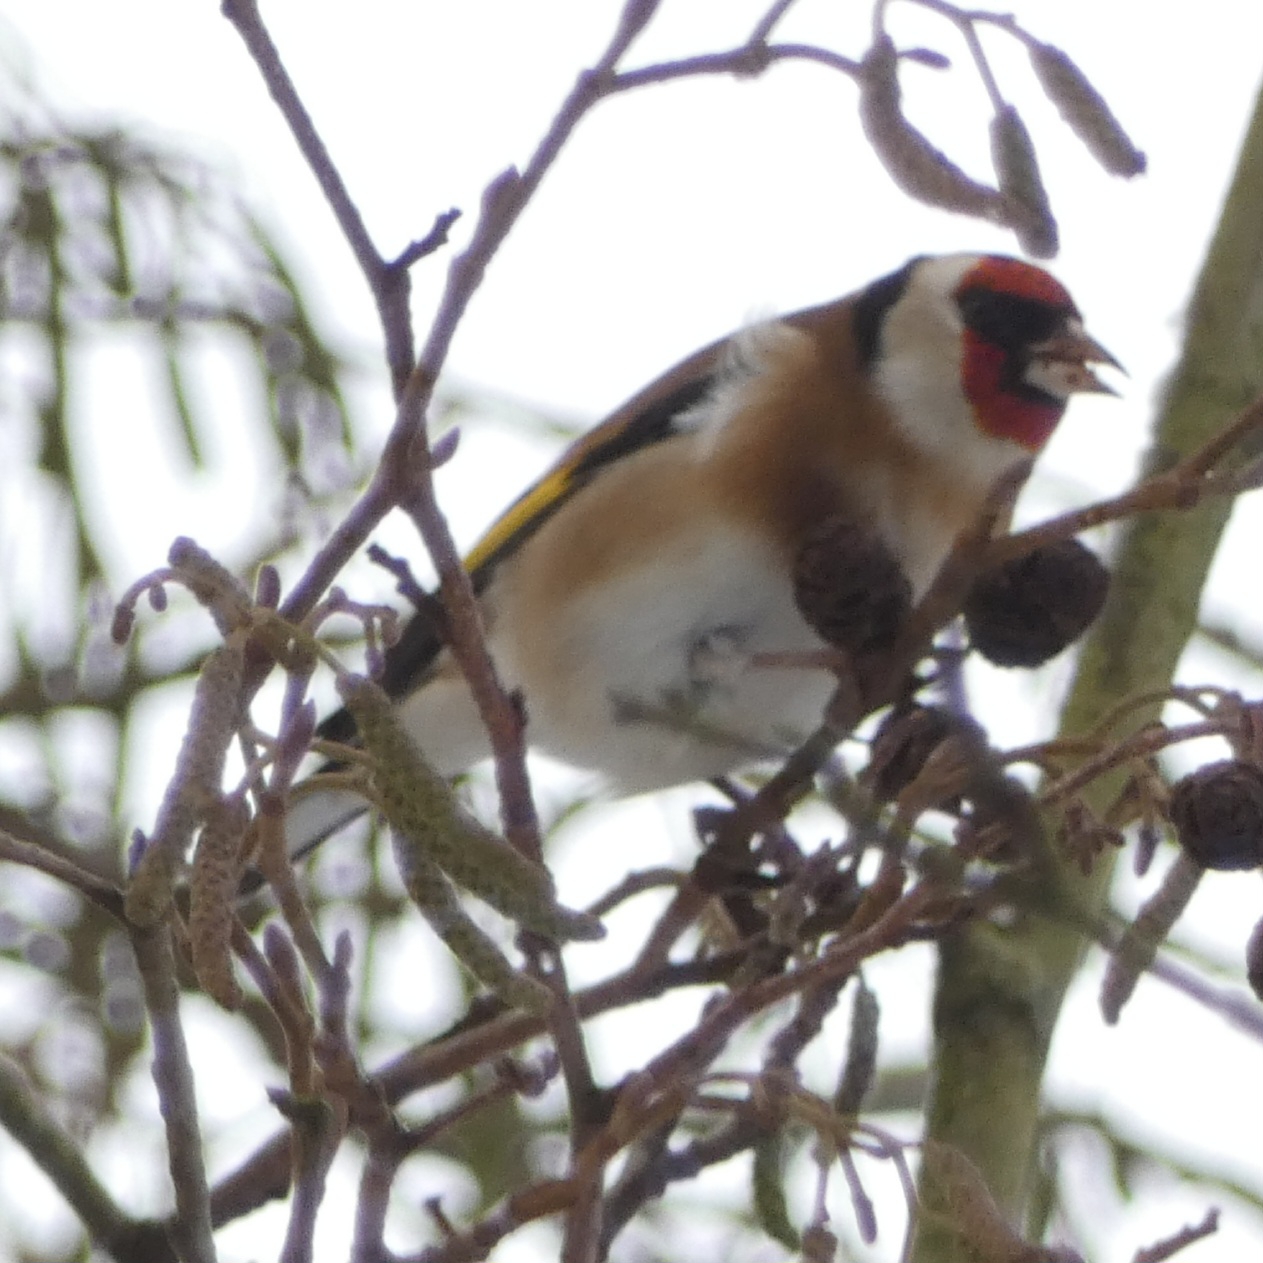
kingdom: Animalia
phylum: Chordata
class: Aves
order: Passeriformes
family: Fringillidae
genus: Carduelis
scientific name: Carduelis carduelis
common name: Stillits
